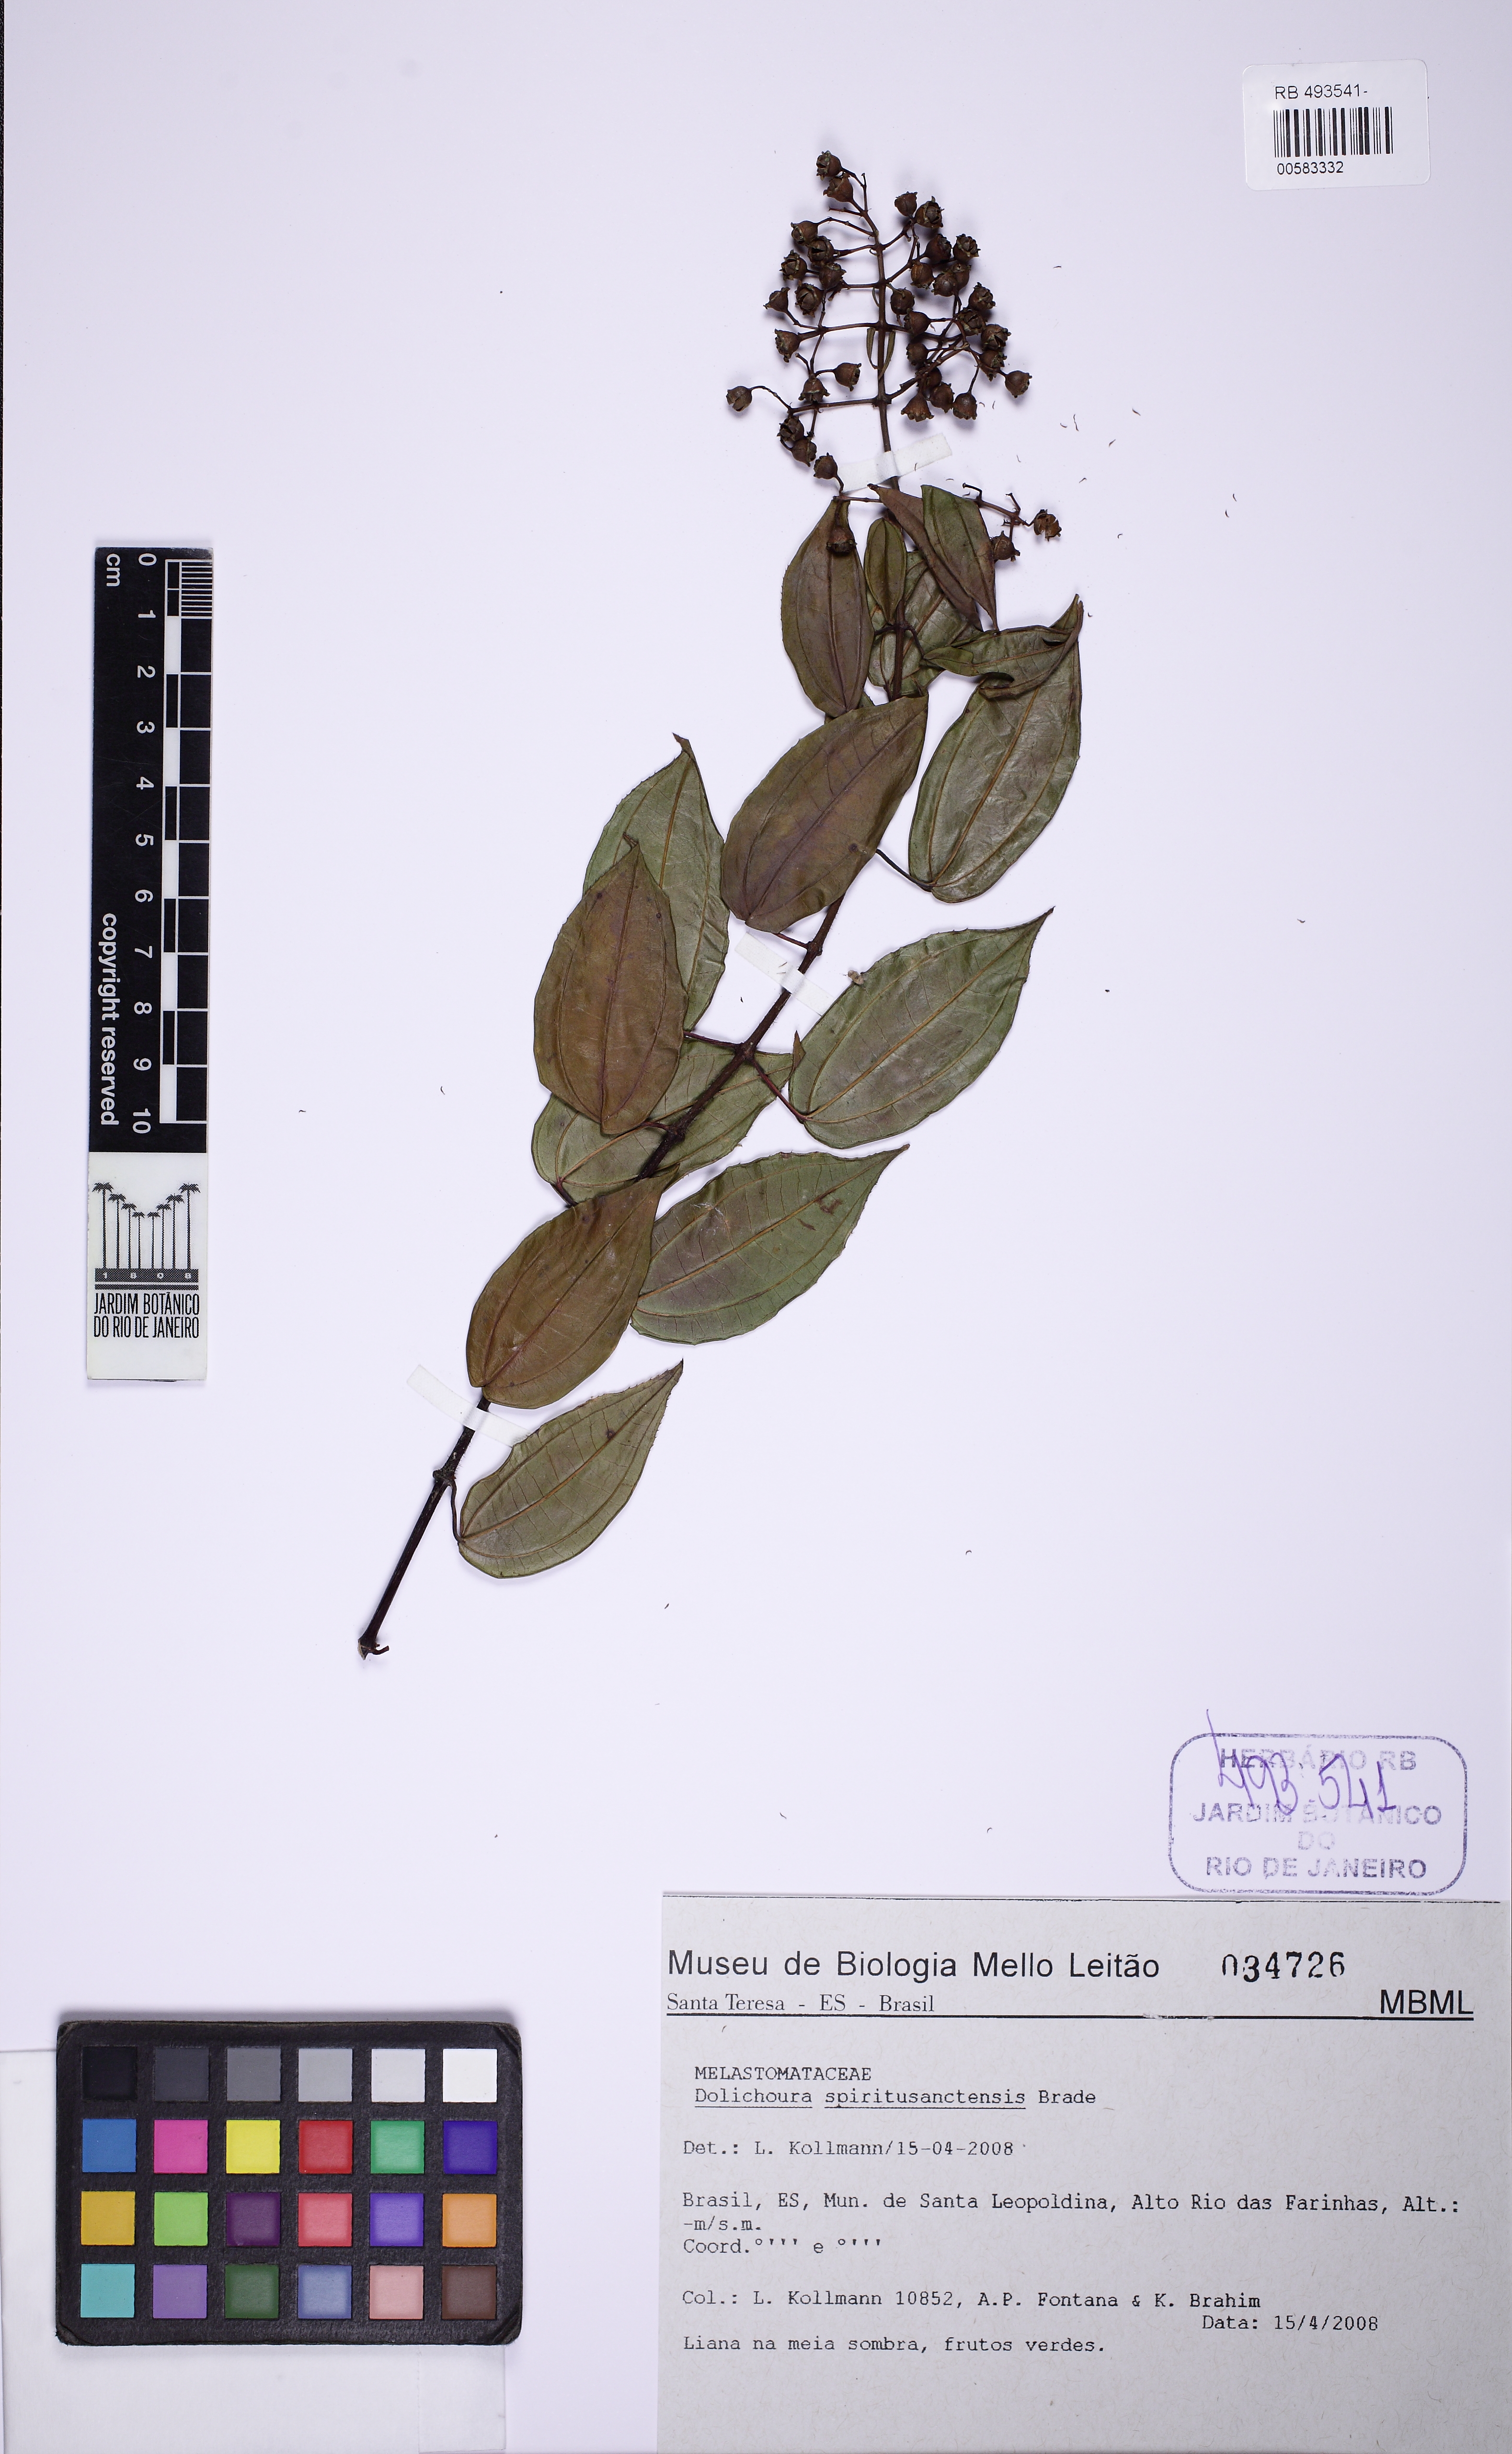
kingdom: Plantae
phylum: Tracheophyta
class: Magnoliopsida
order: Myrtales
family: Melastomataceae
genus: Huberia
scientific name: Huberia bradeana
